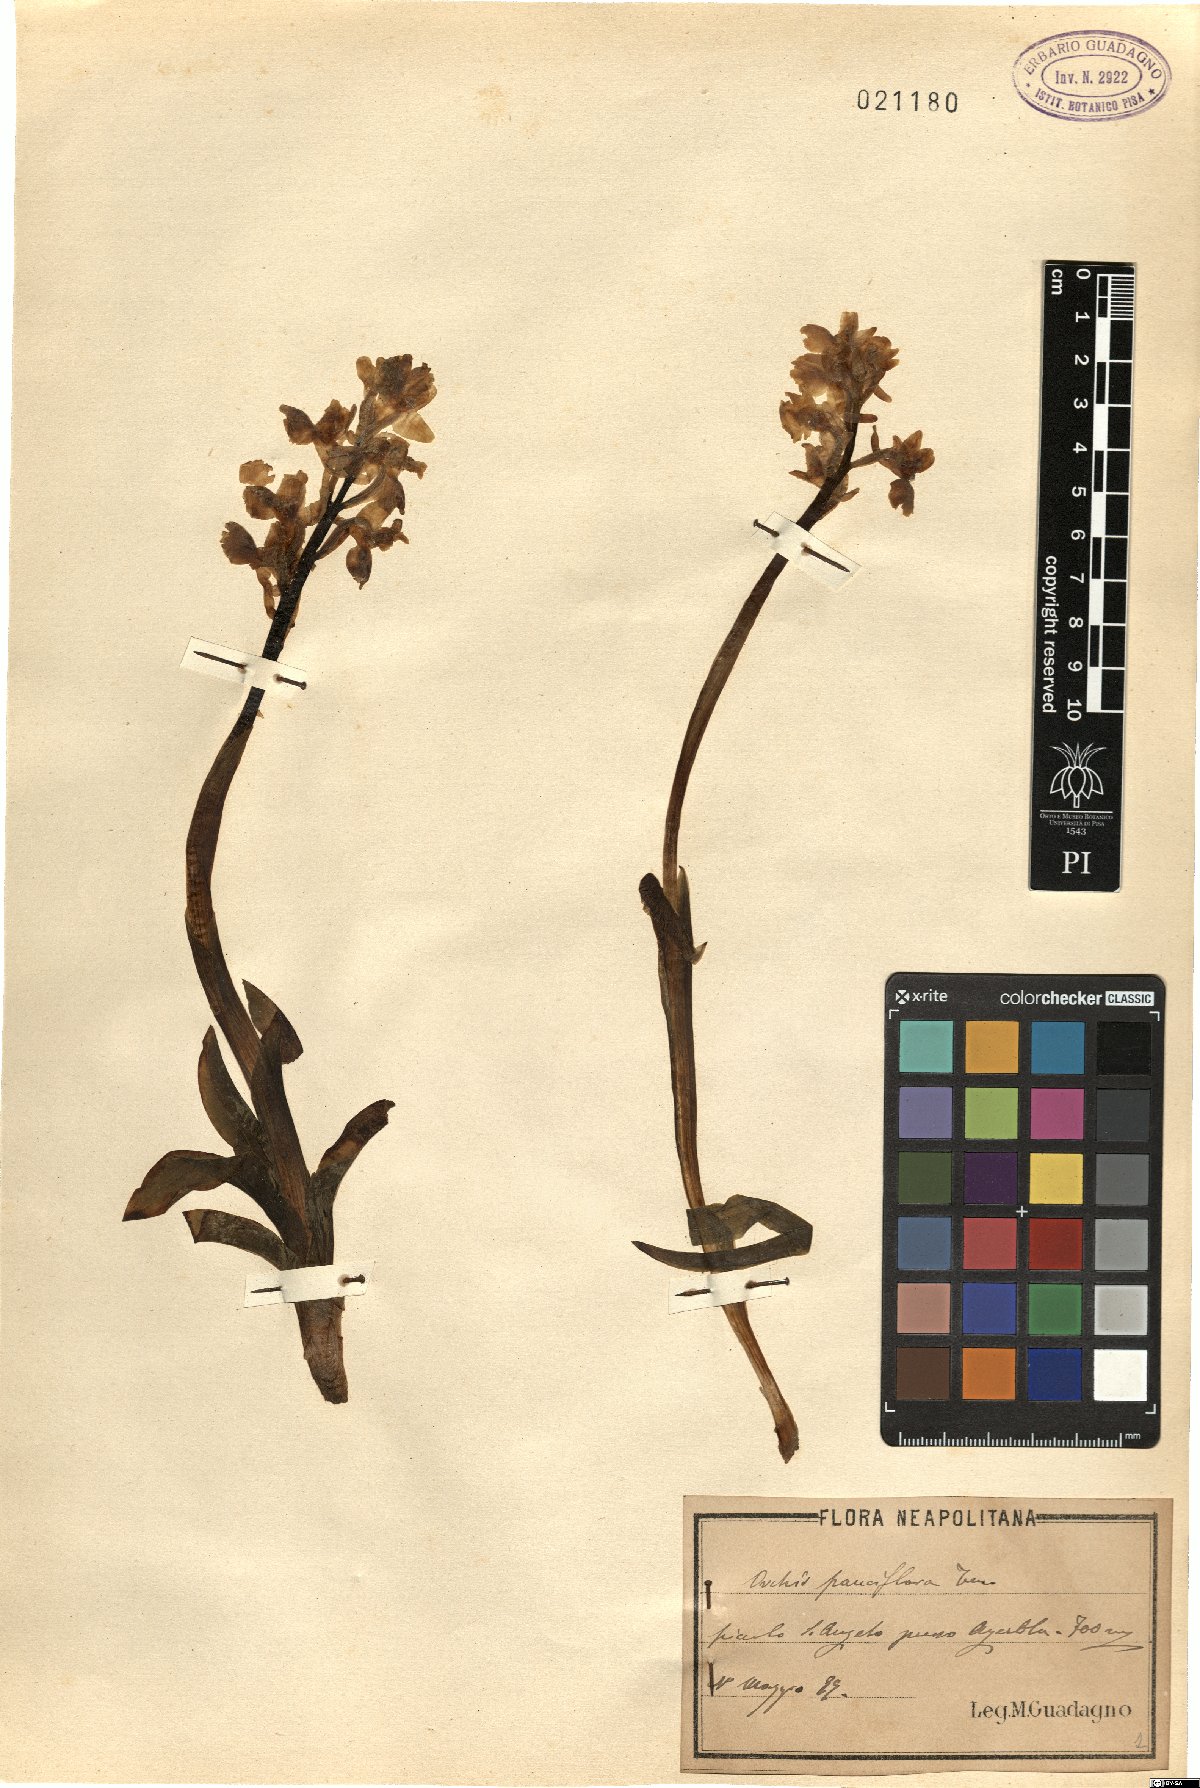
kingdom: Plantae
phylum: Tracheophyta
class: Liliopsida
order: Asparagales
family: Orchidaceae
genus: Orchis
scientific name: Orchis pauciflora
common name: Few-flowered orchid
